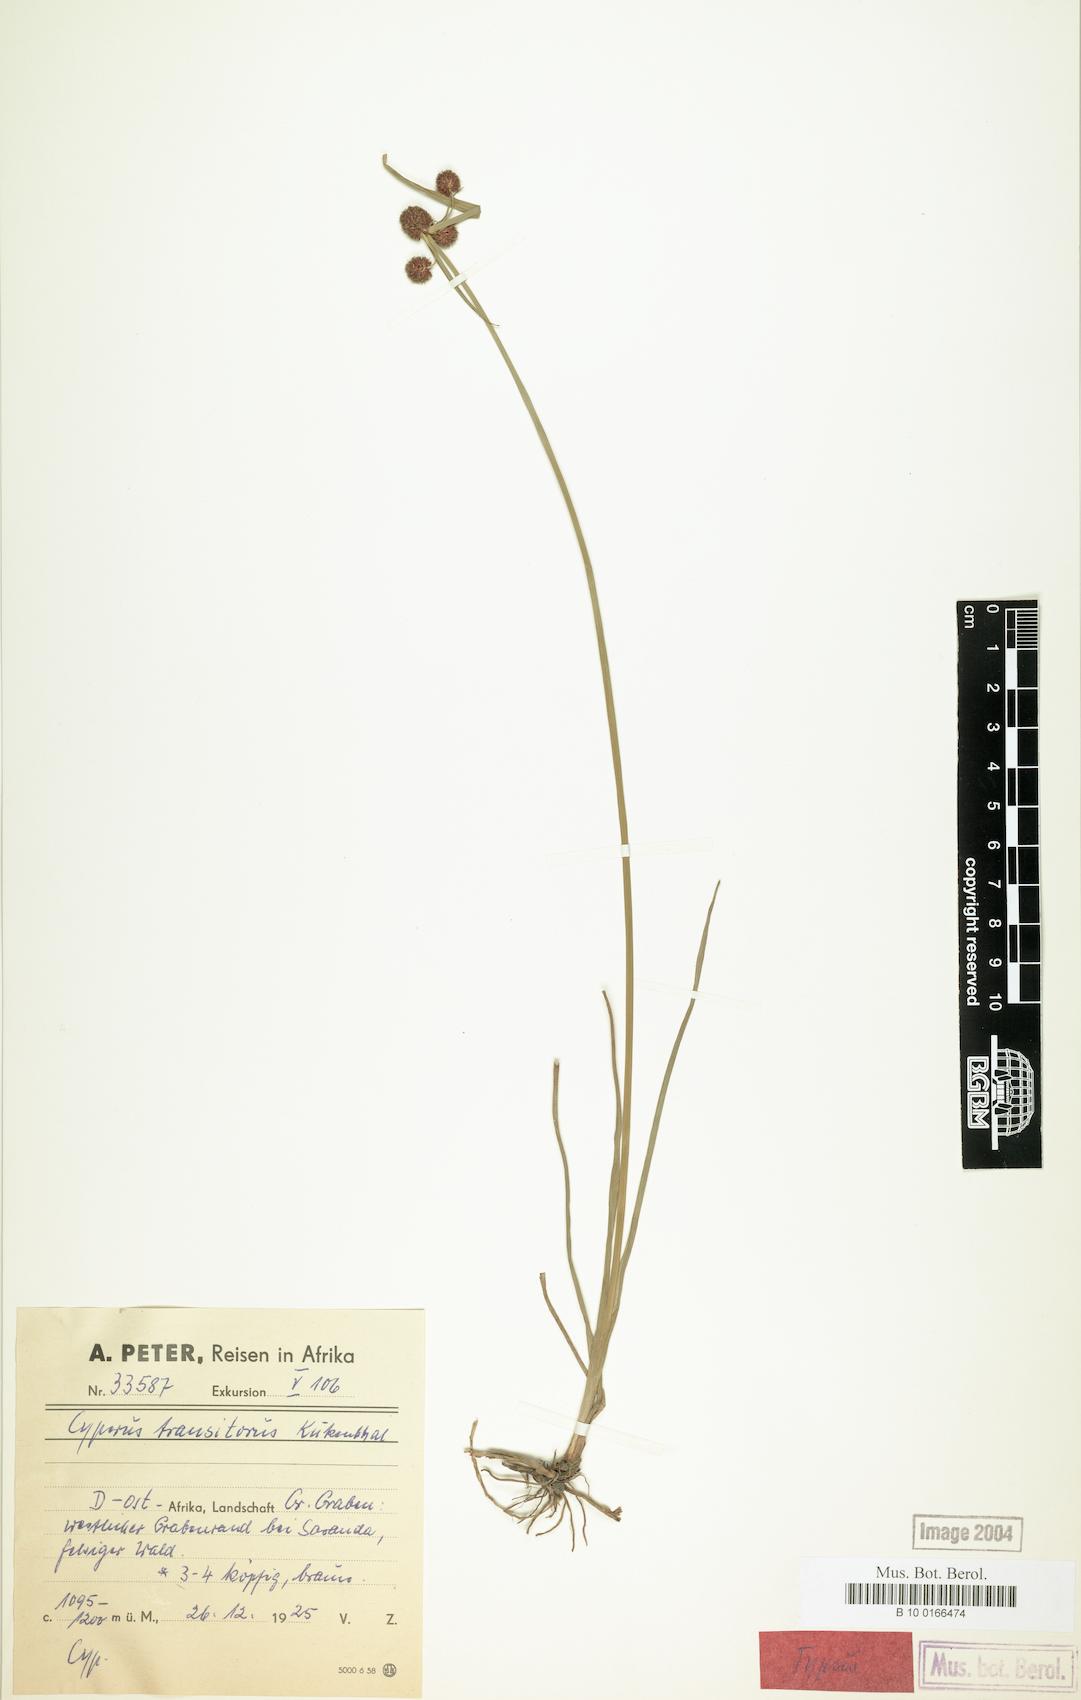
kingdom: Plantae
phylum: Tracheophyta
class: Liliopsida
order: Poales
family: Cyperaceae
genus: Cyperus
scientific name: Cyperus bracheilema
